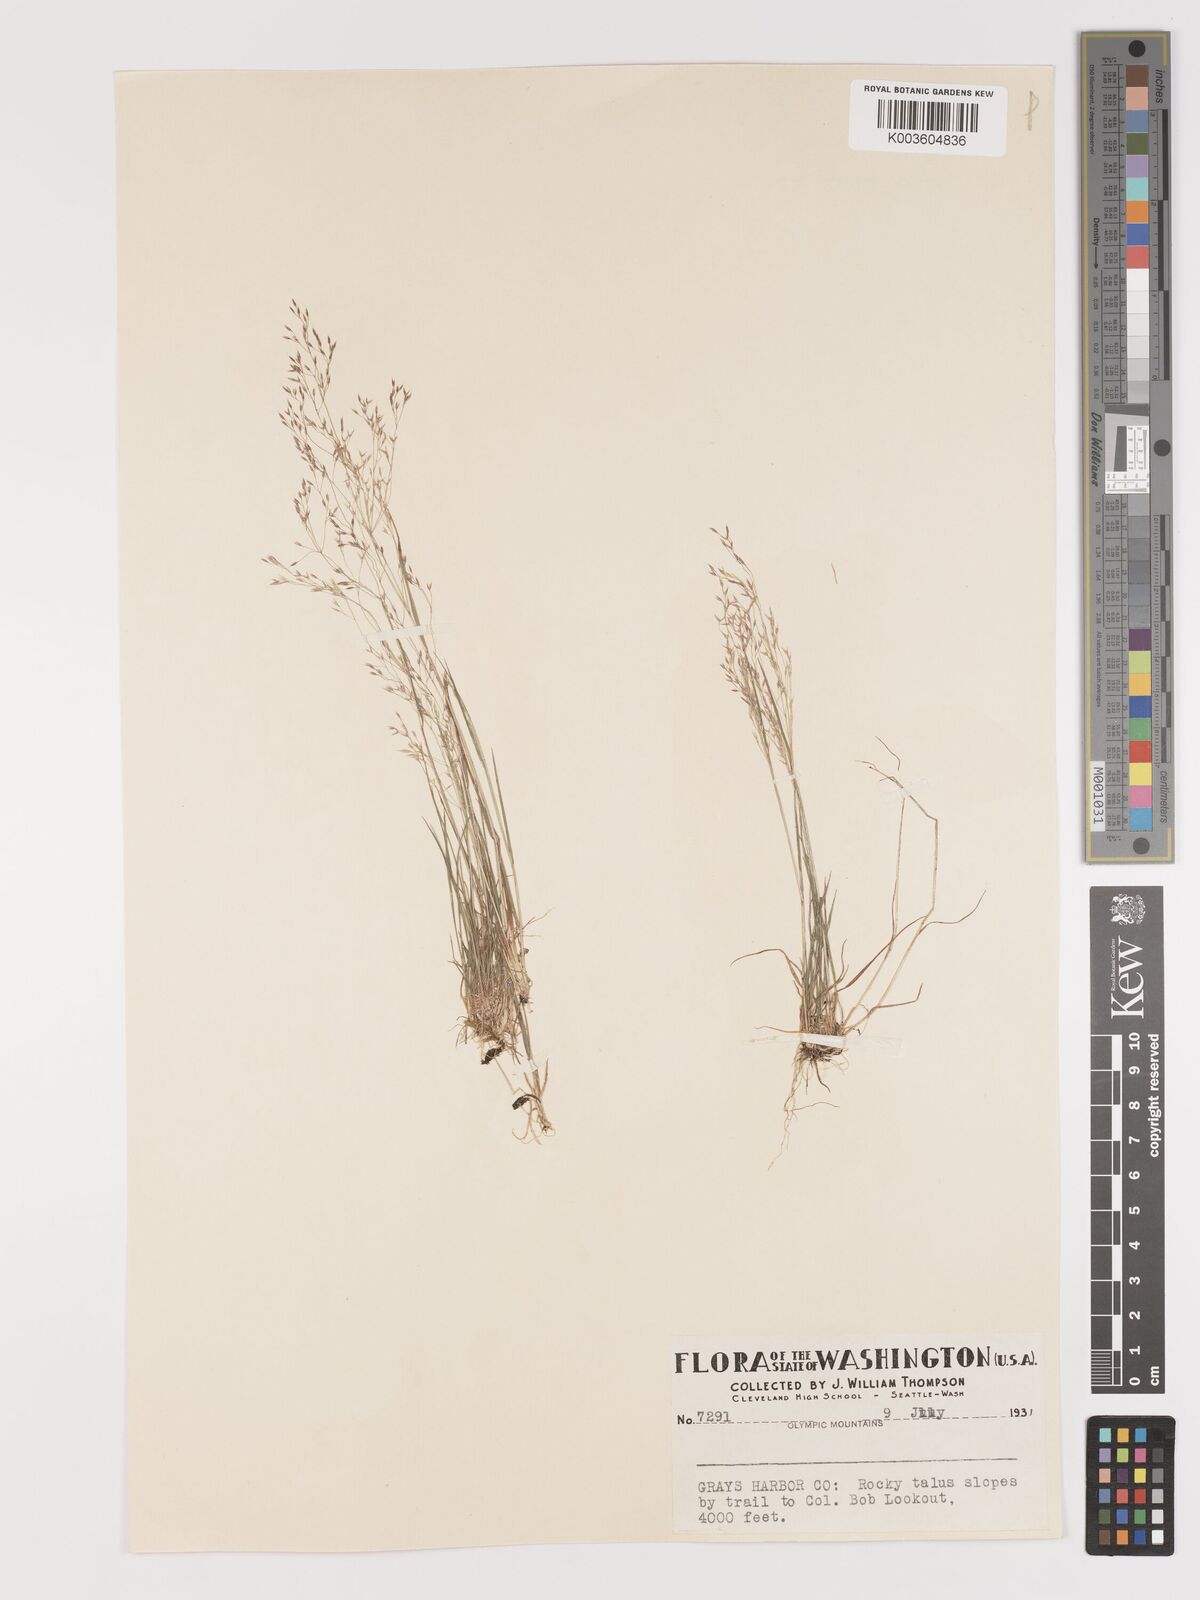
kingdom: Plantae
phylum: Tracheophyta
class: Liliopsida
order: Poales
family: Poaceae
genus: Agrostis
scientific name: Agrostis
